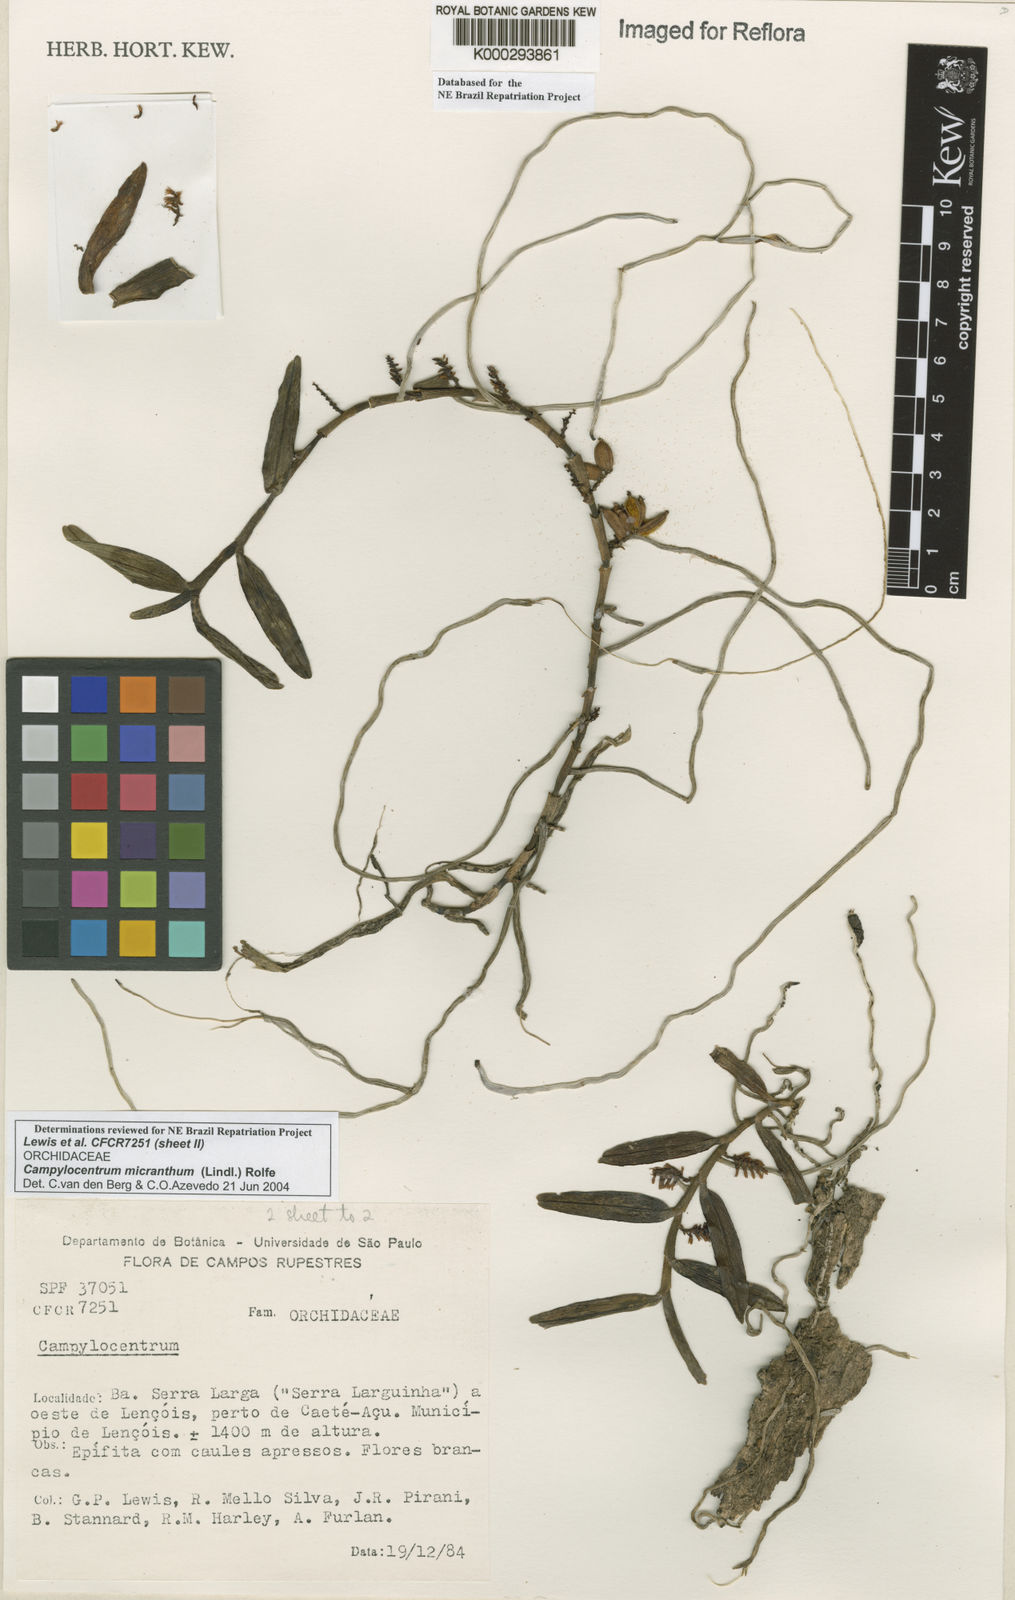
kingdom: Plantae
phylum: Tracheophyta
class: Liliopsida
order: Asparagales
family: Orchidaceae
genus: Campylocentrum
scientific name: Campylocentrum micranthum
